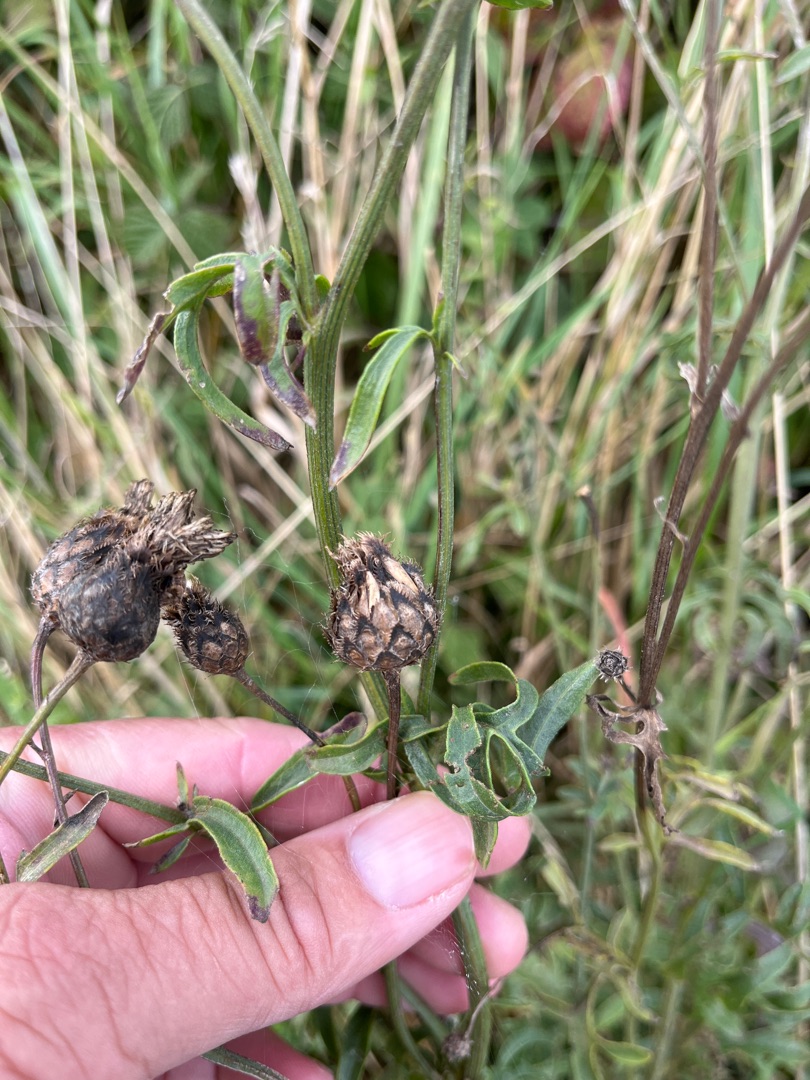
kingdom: Plantae
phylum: Tracheophyta
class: Magnoliopsida
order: Asterales
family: Asteraceae
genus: Centaurea
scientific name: Centaurea scabiosa
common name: Stor knopurt
